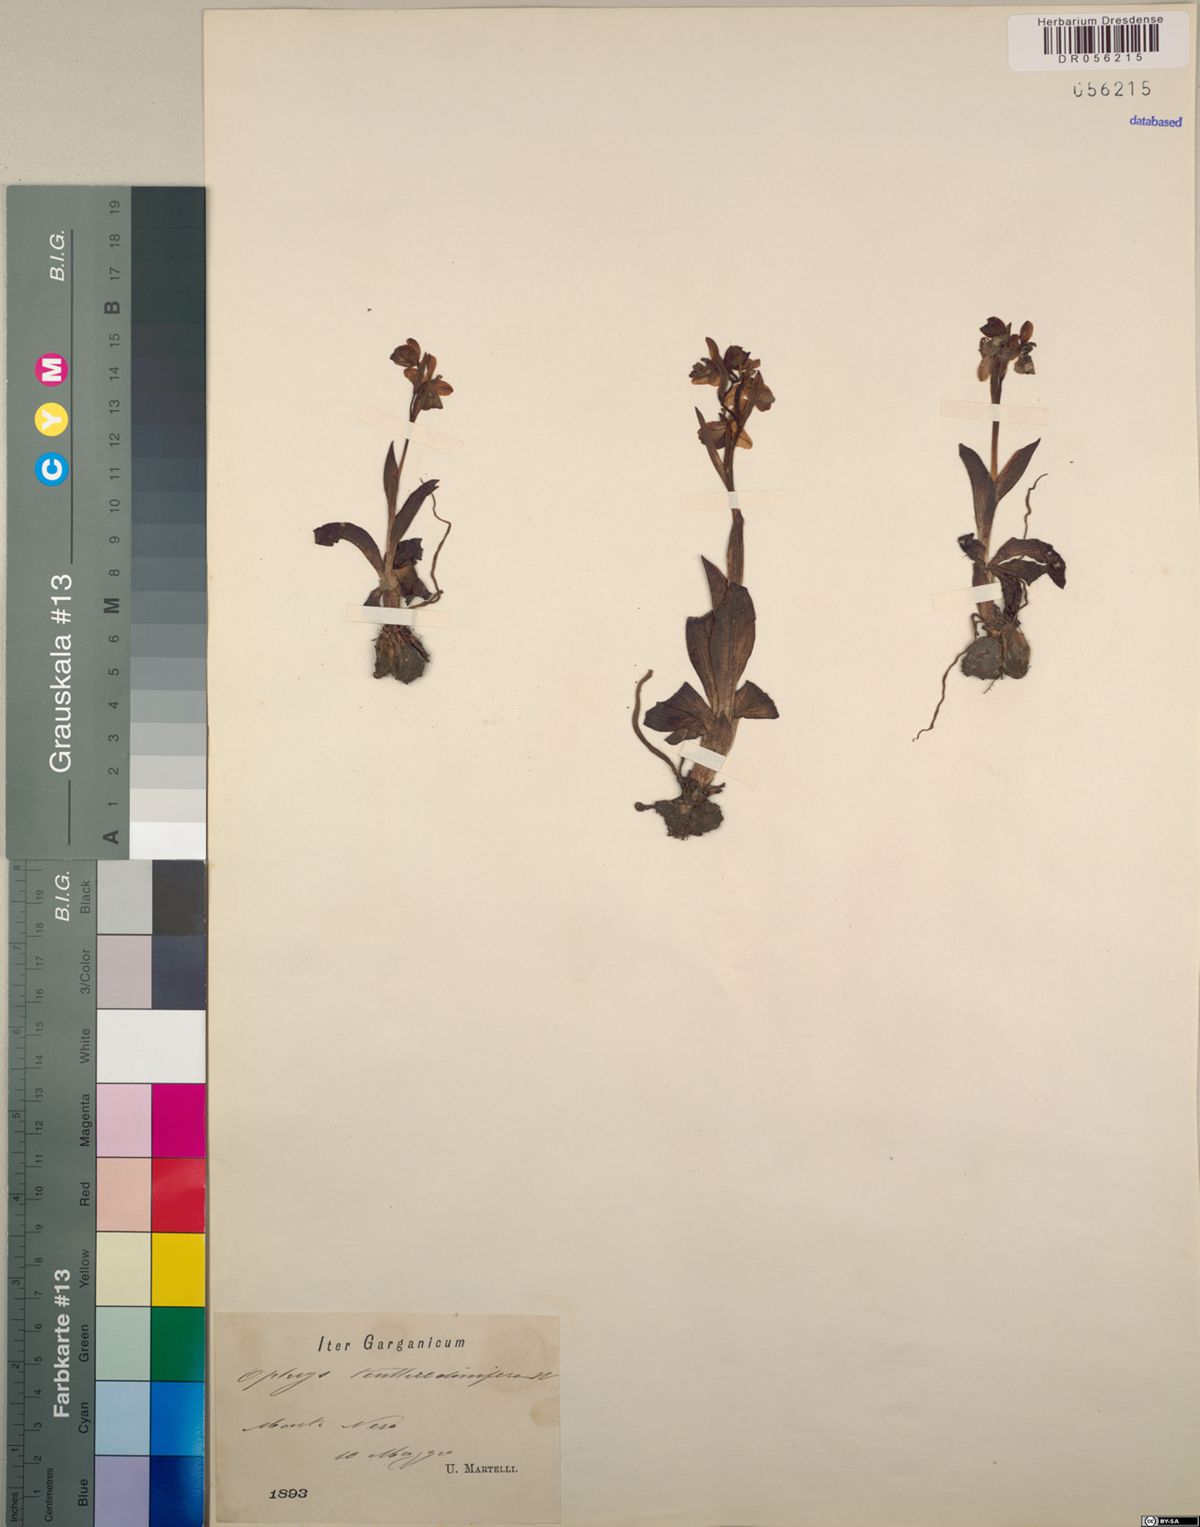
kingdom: Plantae
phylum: Tracheophyta
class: Liliopsida
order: Asparagales
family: Orchidaceae
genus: Ophrys
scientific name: Ophrys tenthredinifera
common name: Sawfly orchid
